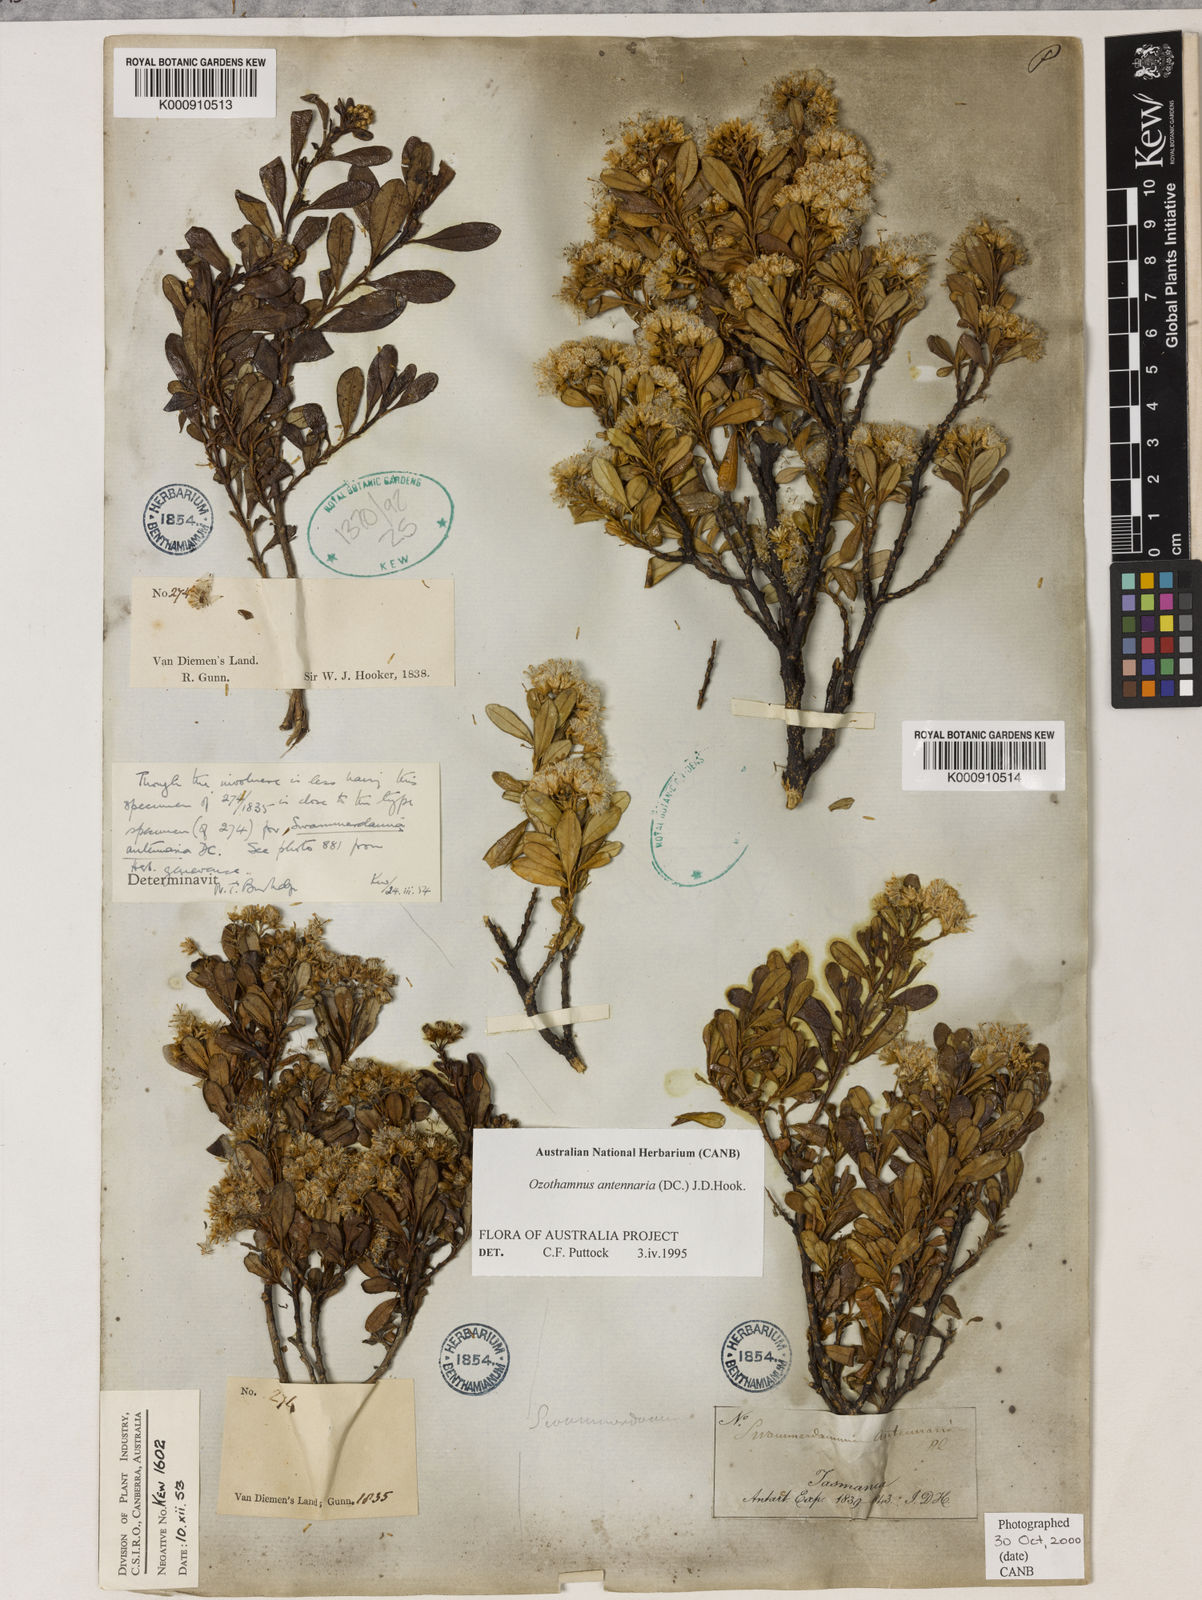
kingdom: Plantae
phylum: Tracheophyta
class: Magnoliopsida
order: Asterales
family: Asteraceae
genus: Ozothamnus
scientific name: Ozothamnus antennaria
